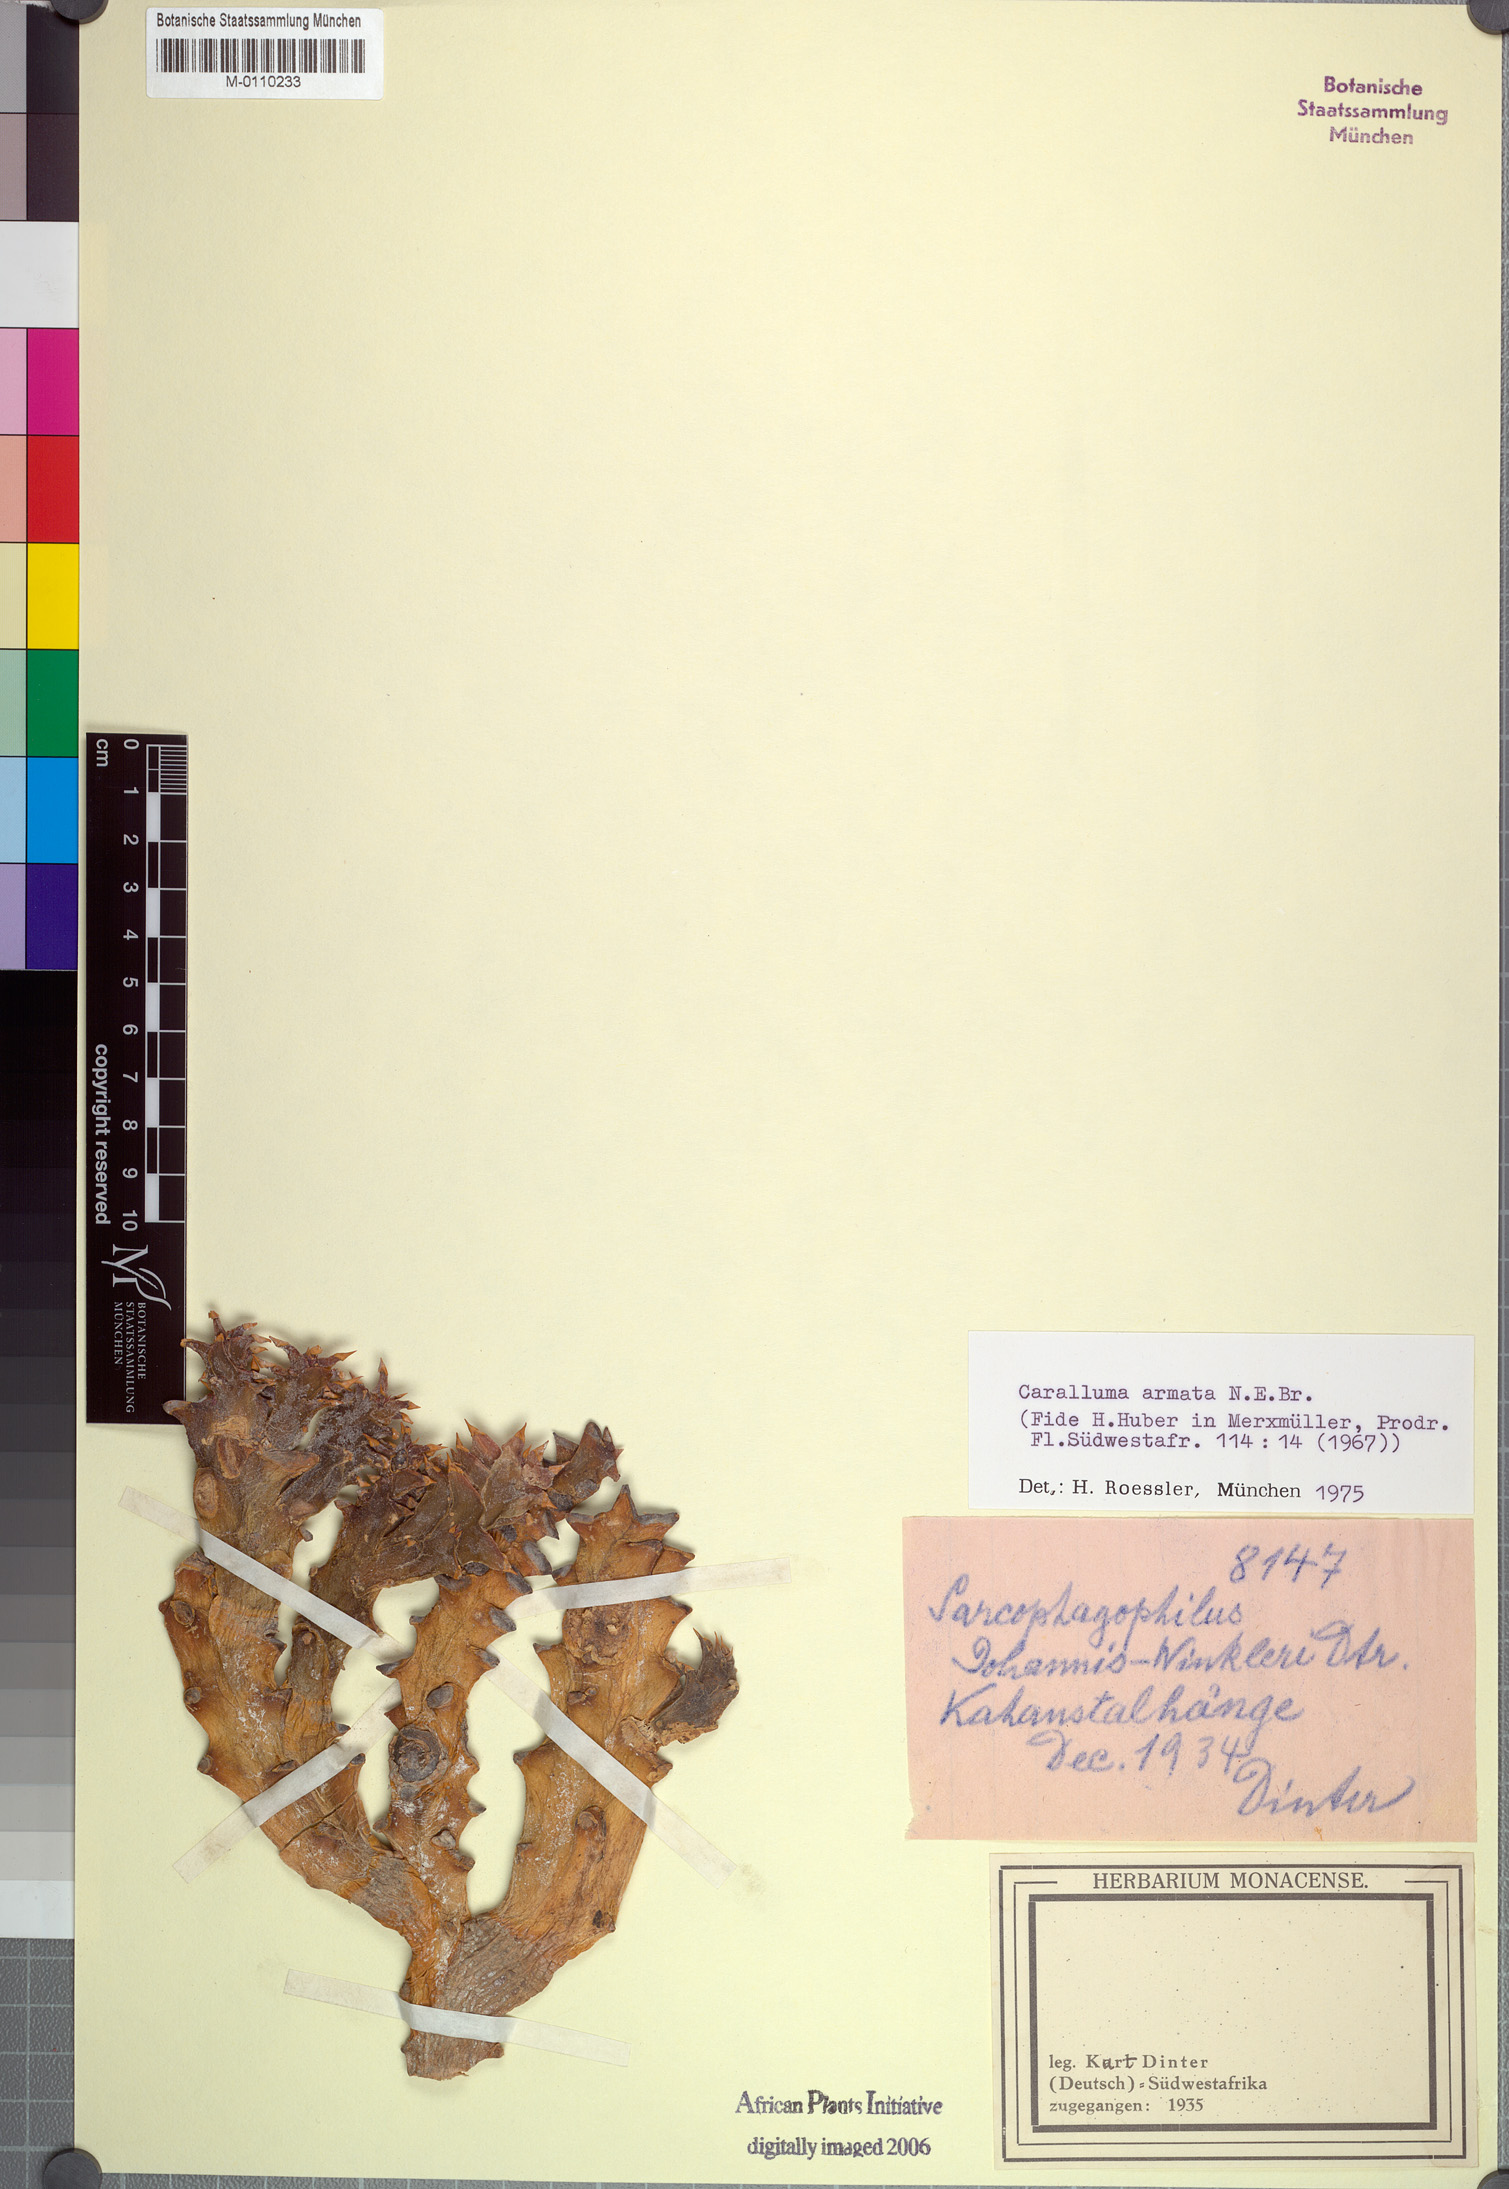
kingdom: Plantae
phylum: Tracheophyta
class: Magnoliopsida
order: Gentianales
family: Apocynaceae
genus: Ceropegia
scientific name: Ceropegia mammillaris
